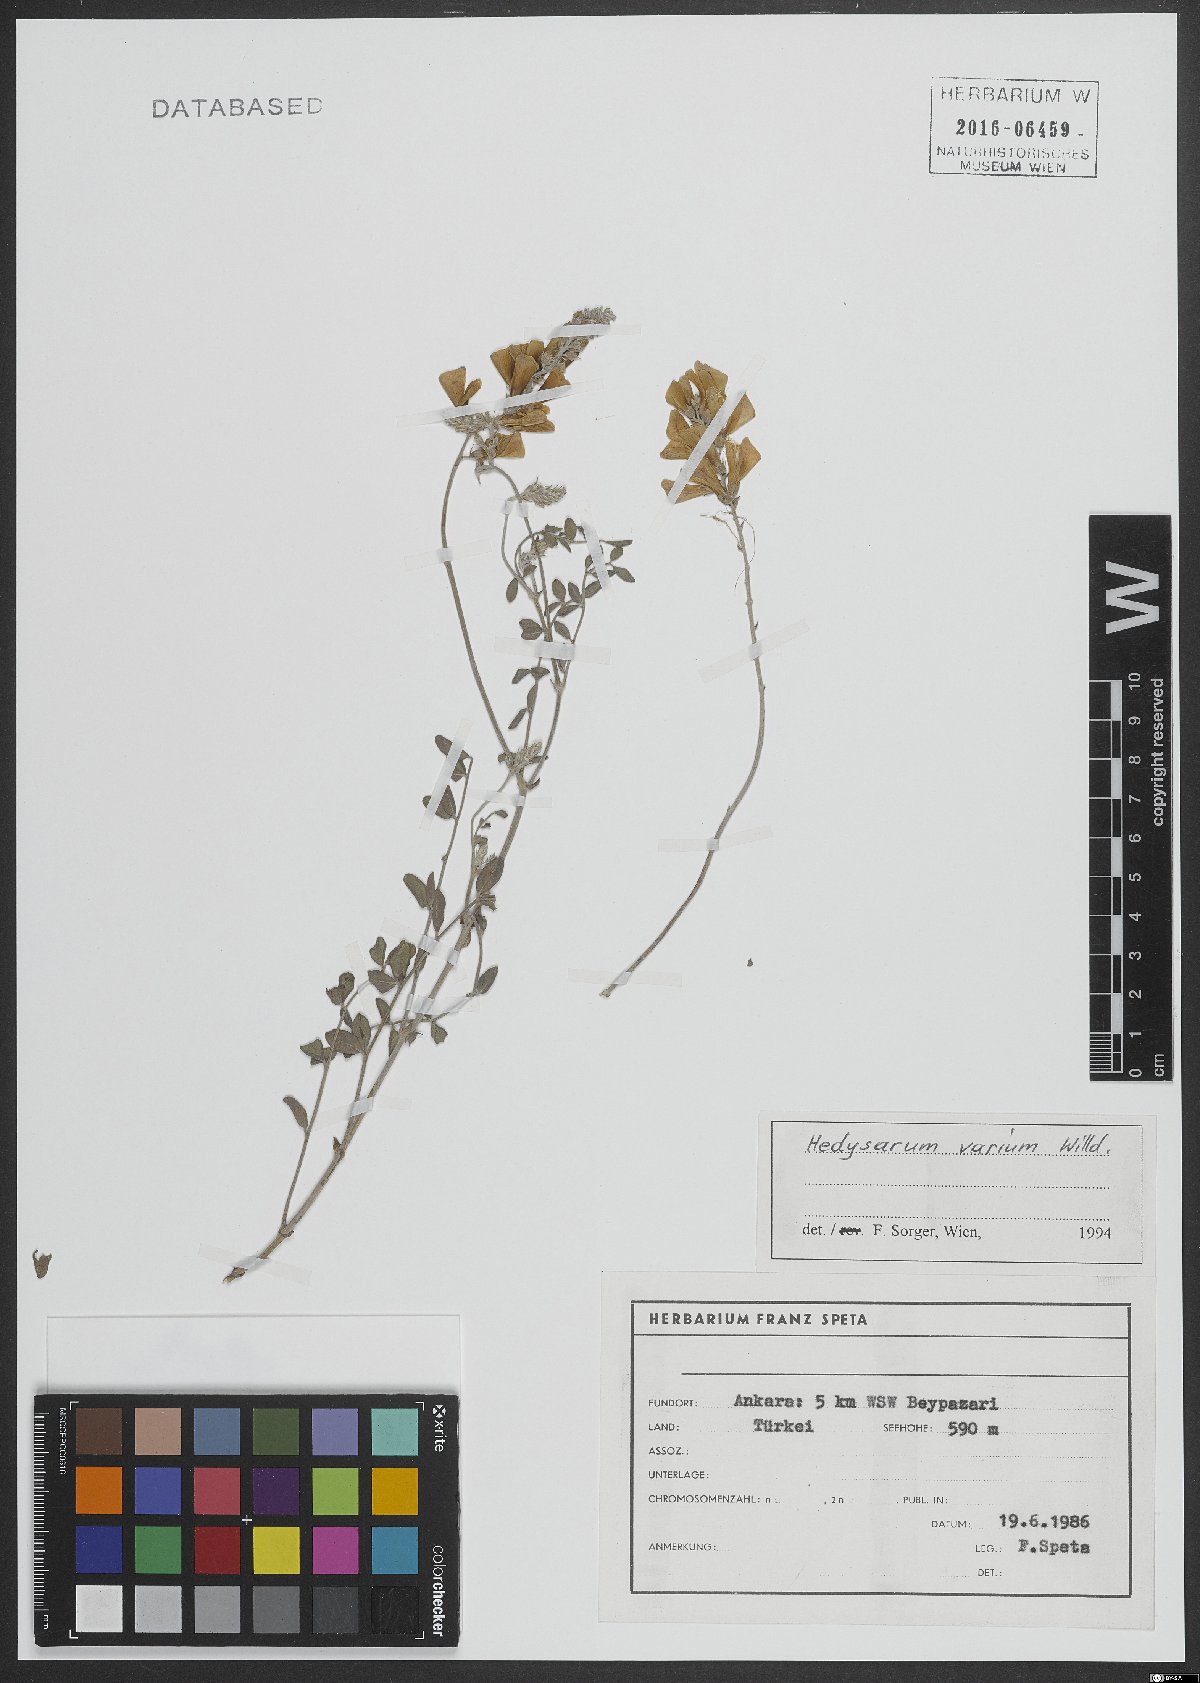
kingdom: Plantae
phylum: Tracheophyta
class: Magnoliopsida
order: Fabales
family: Fabaceae
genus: Hedysarum
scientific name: Hedysarum varium
